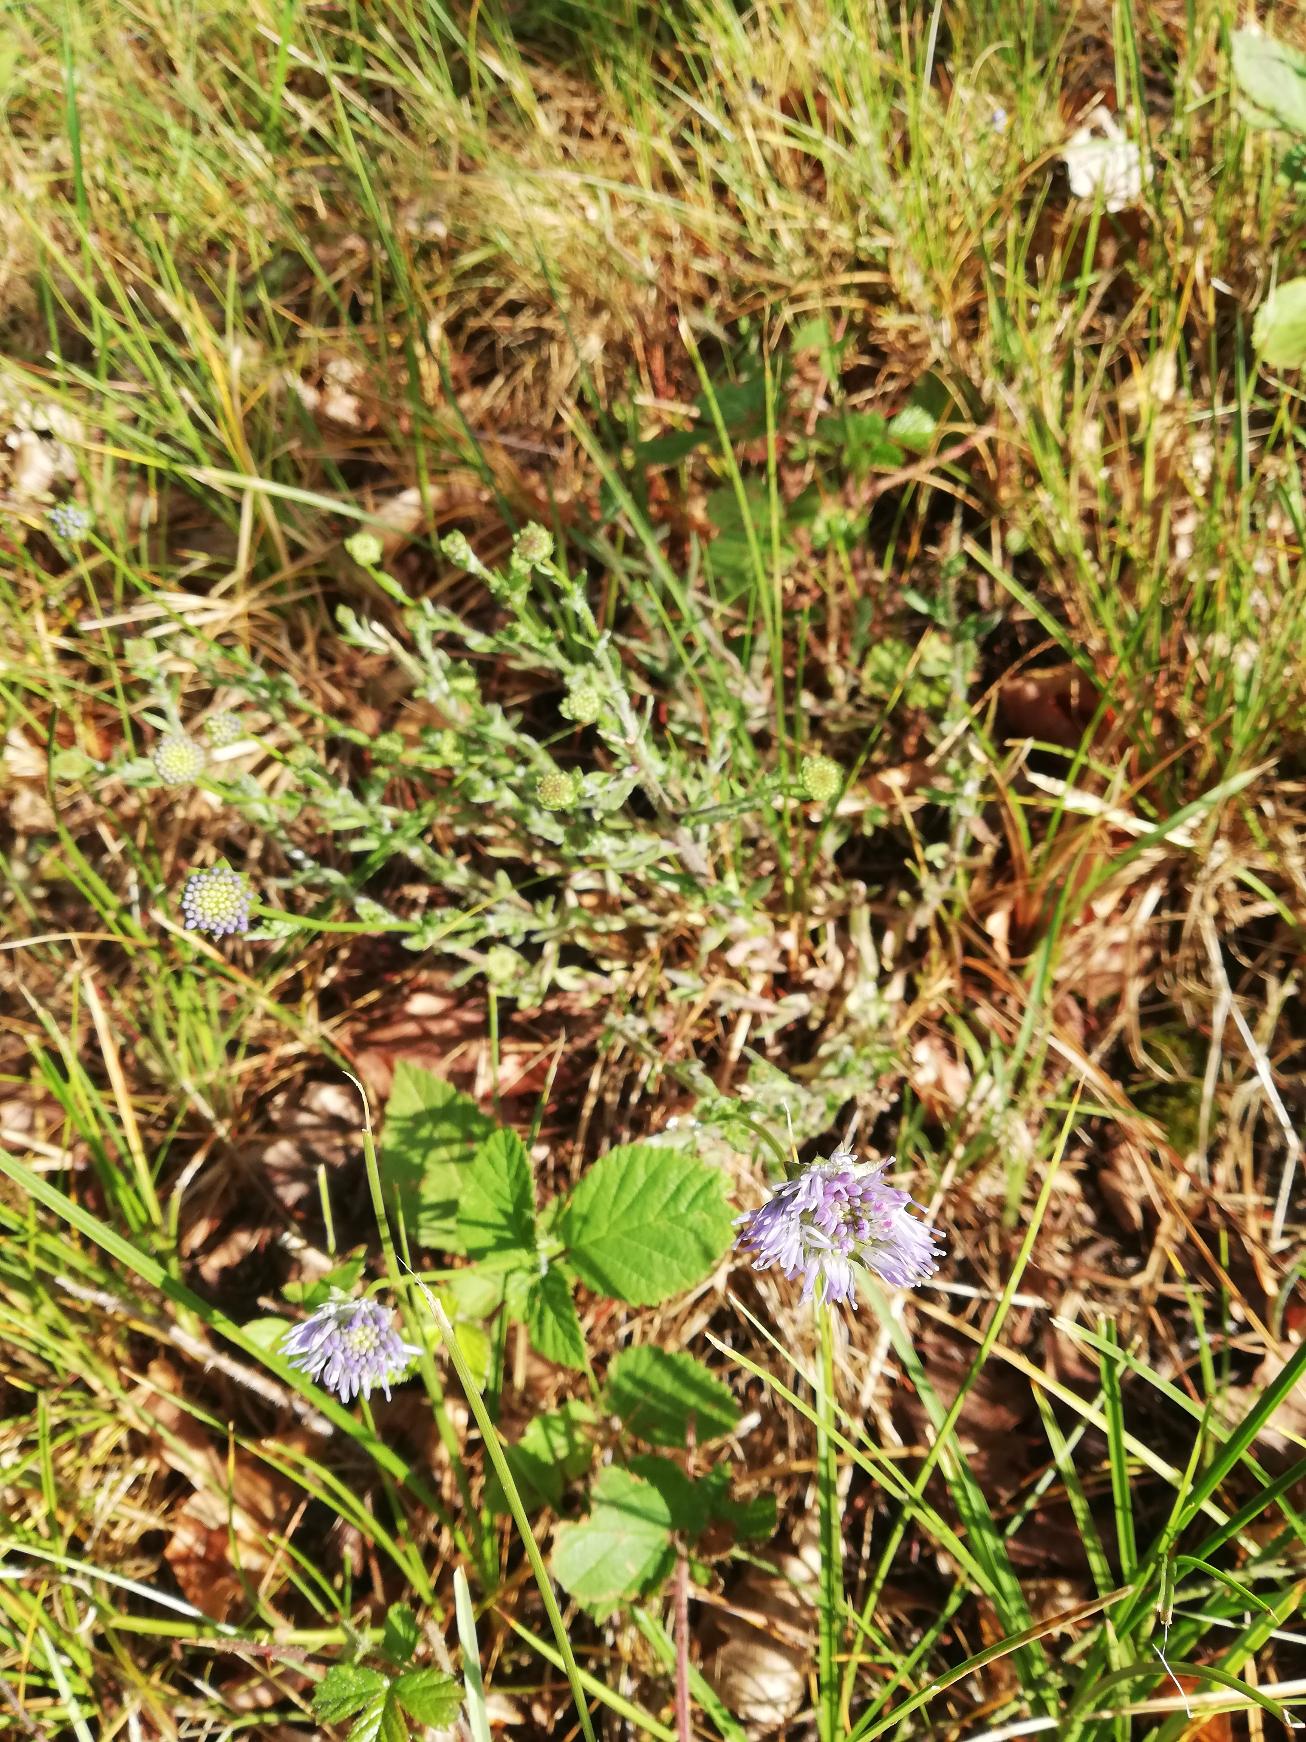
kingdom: Plantae
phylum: Tracheophyta
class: Magnoliopsida
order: Asterales
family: Campanulaceae
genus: Jasione
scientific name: Jasione montana
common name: Blåmunke
